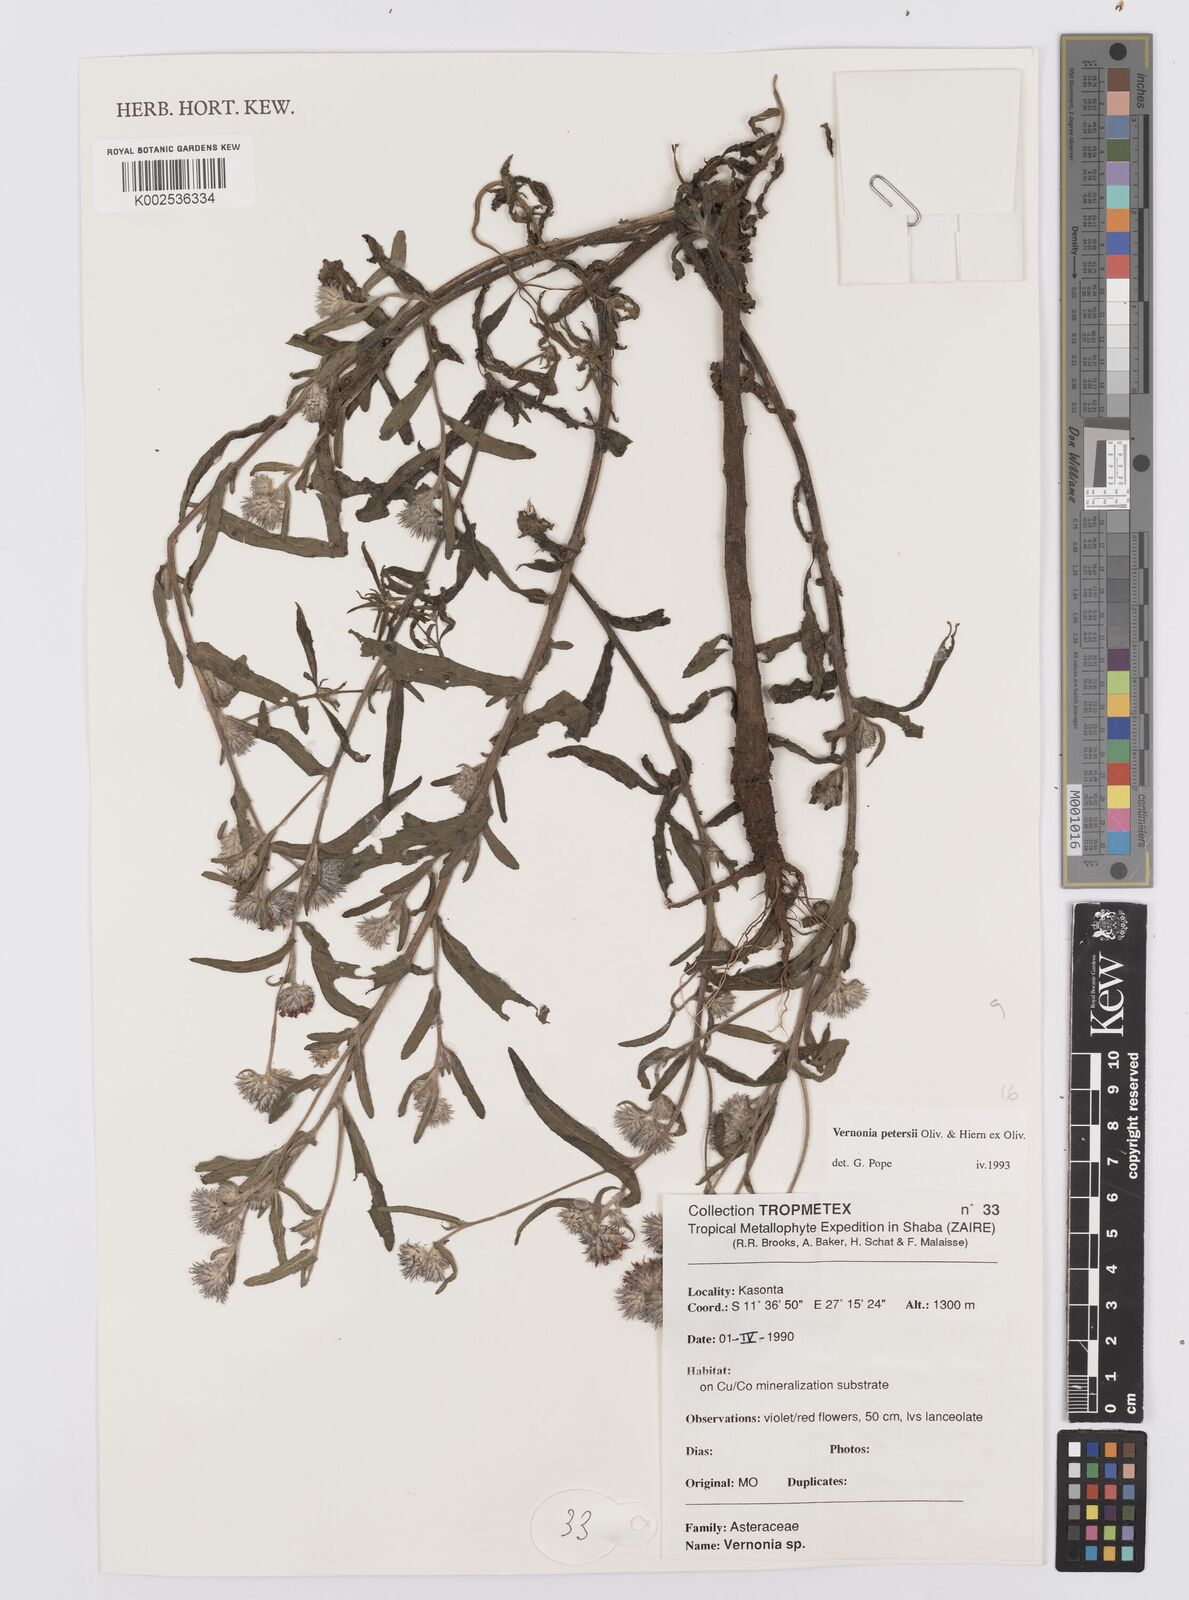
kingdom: Plantae
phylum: Tracheophyta
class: Magnoliopsida
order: Asterales
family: Asteraceae
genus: Vernoniastrum
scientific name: Vernoniastrum latifolium
